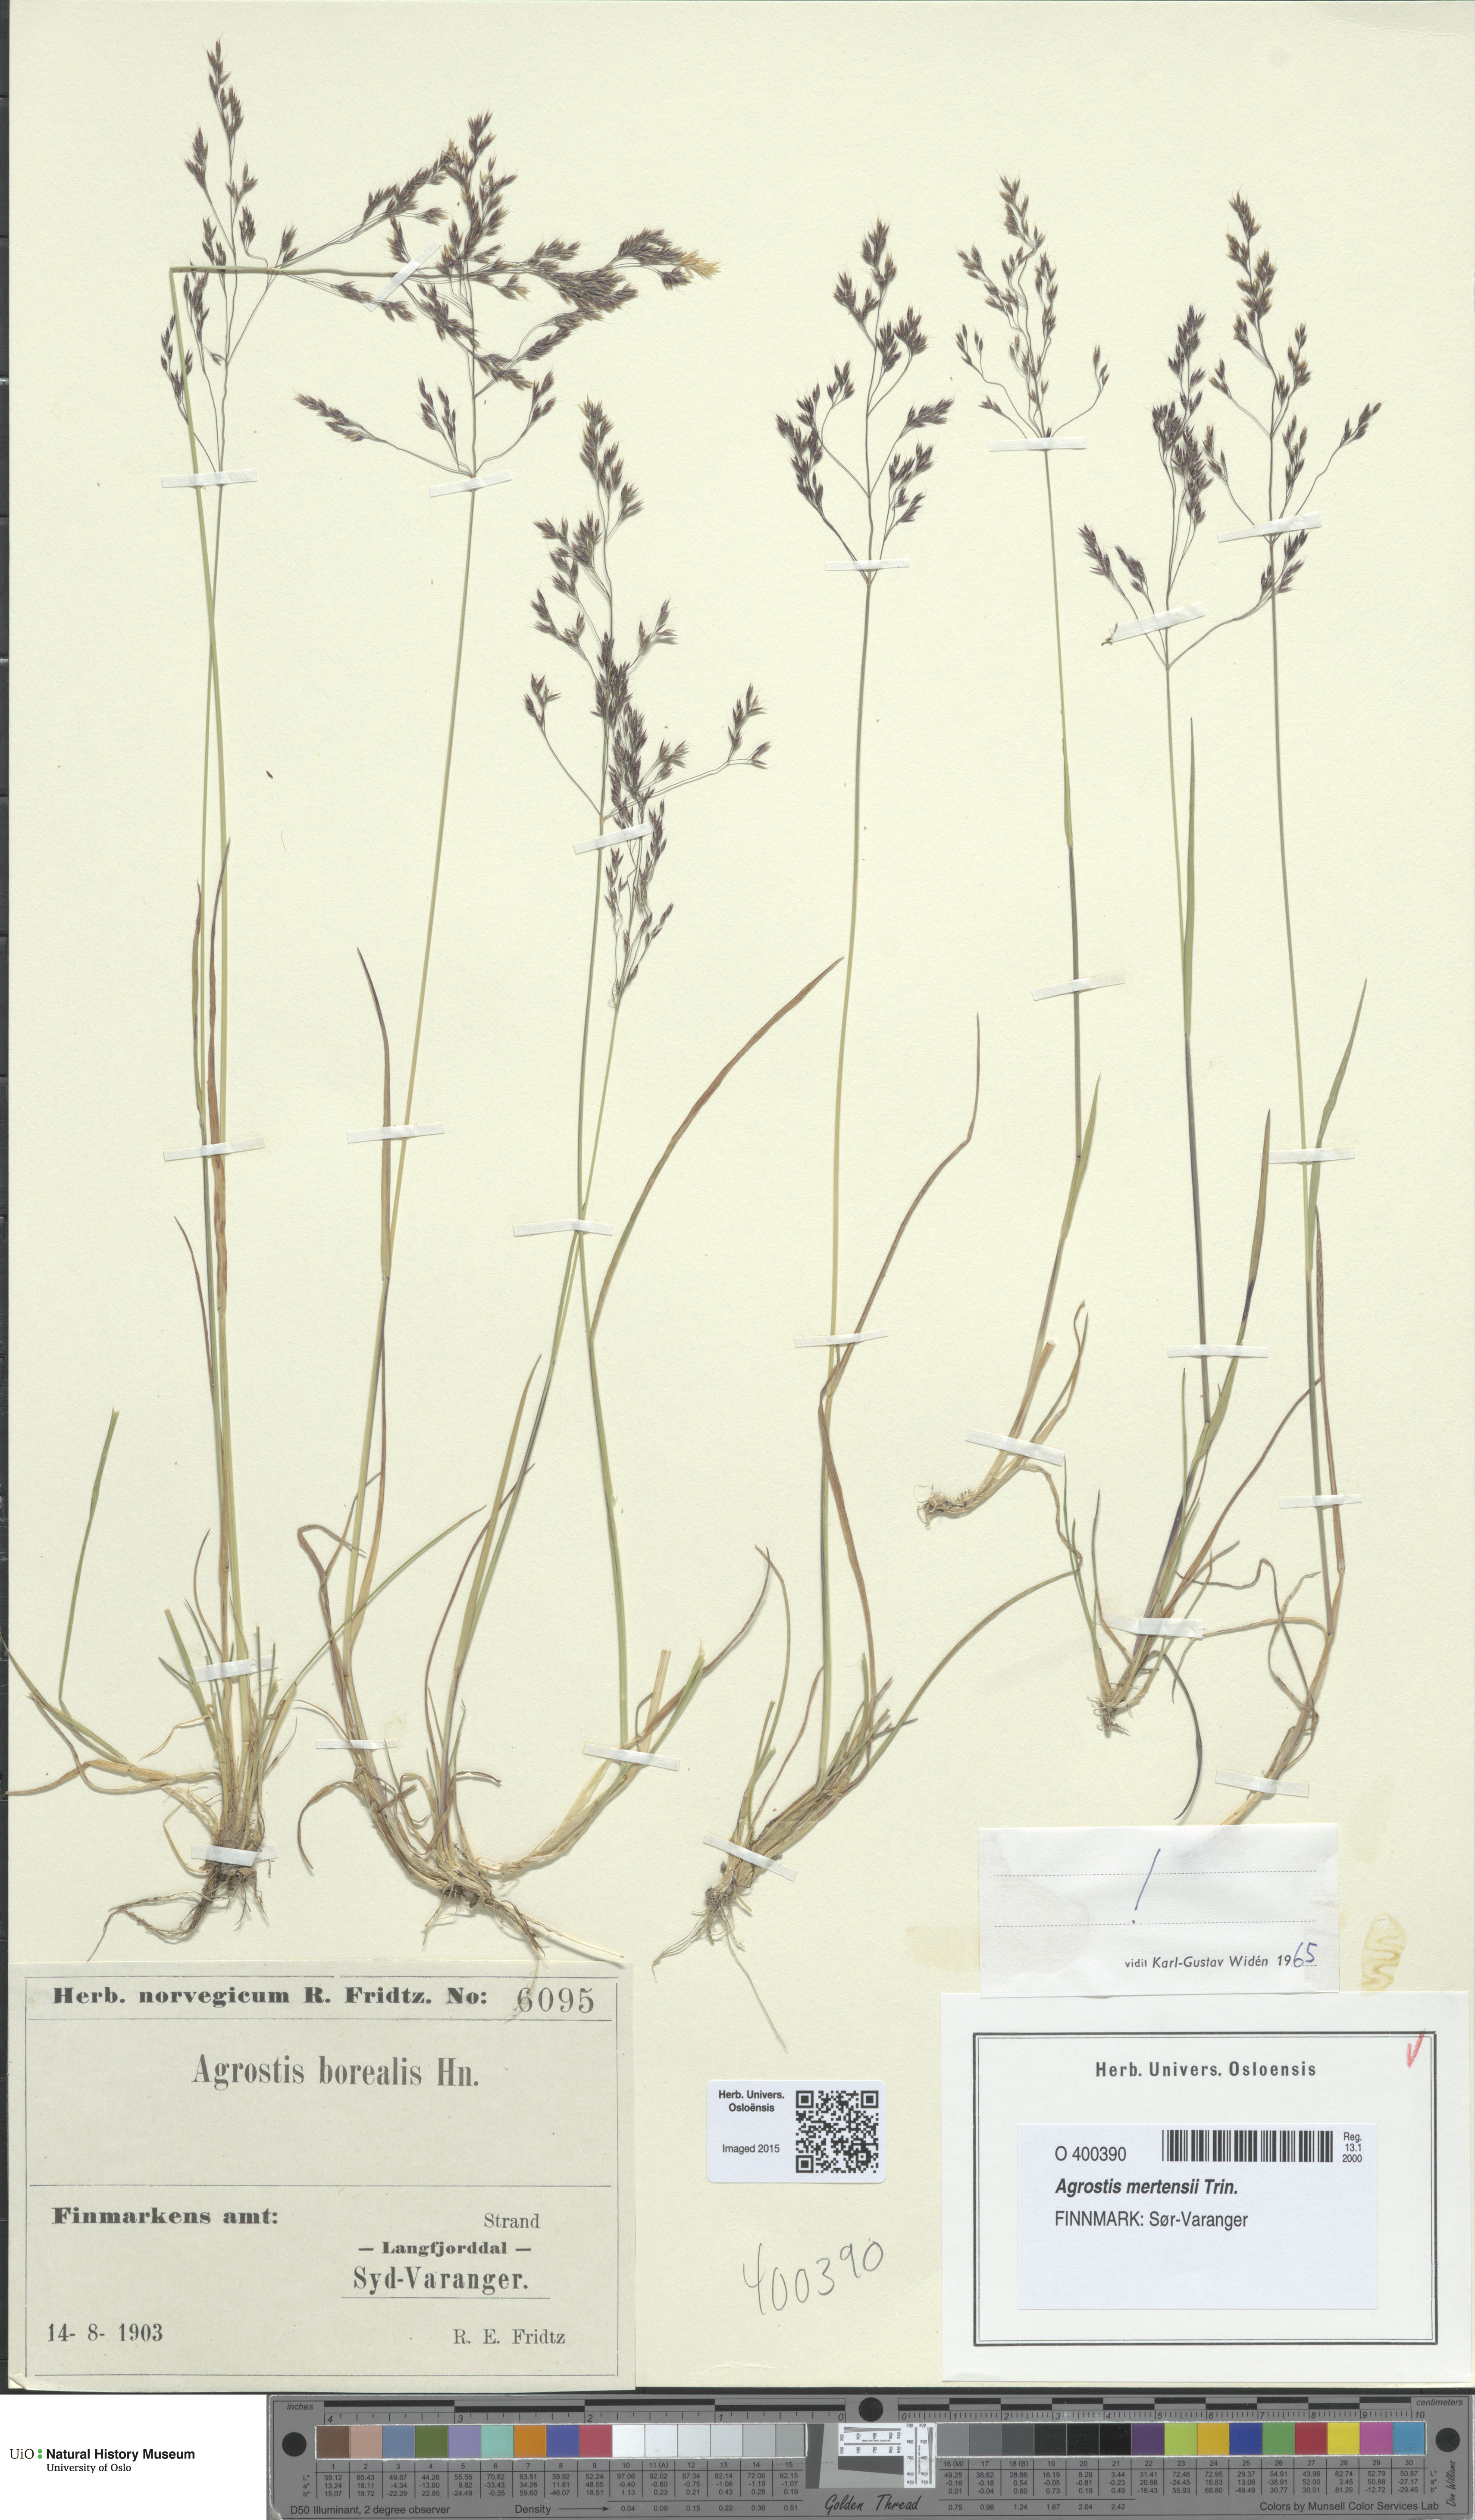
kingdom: Plantae
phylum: Tracheophyta
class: Liliopsida
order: Poales
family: Poaceae
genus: Agrostis
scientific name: Agrostis mertensii
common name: Northern bent
